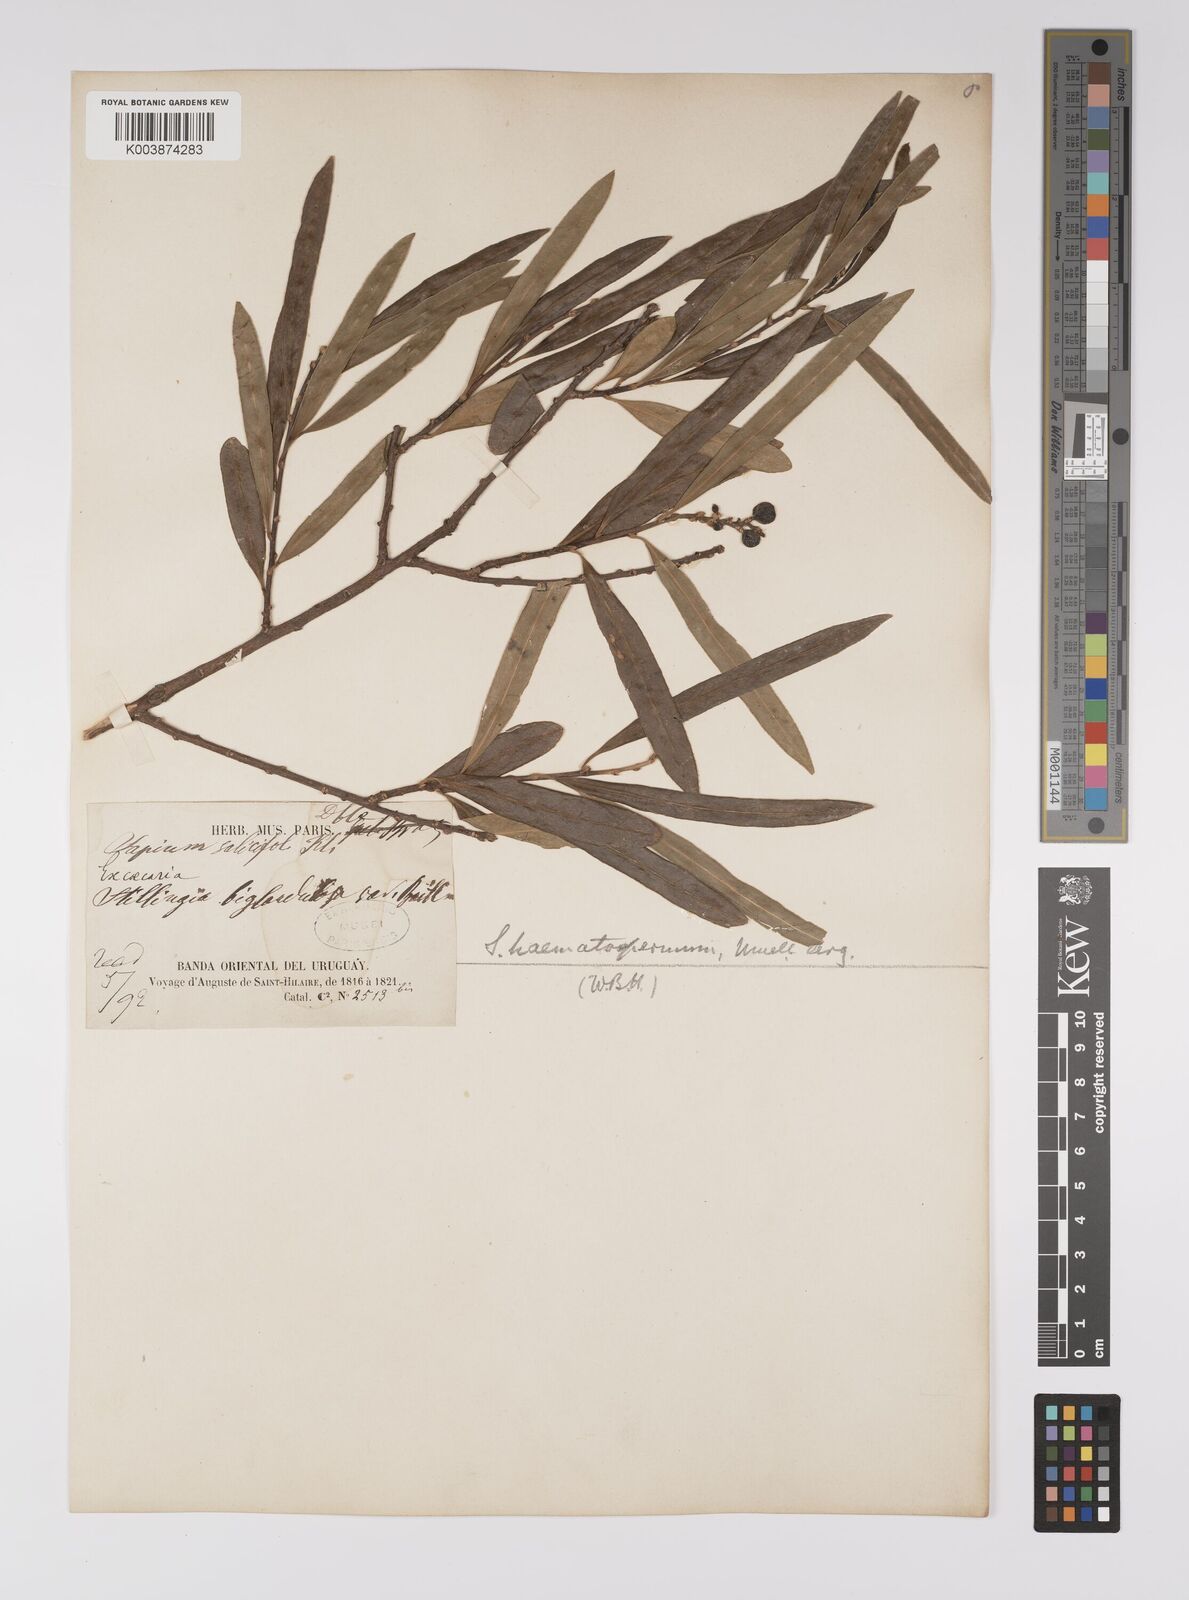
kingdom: Plantae
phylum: Tracheophyta
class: Magnoliopsida
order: Malpighiales
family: Euphorbiaceae
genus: Sapium
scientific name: Sapium haematospermum
